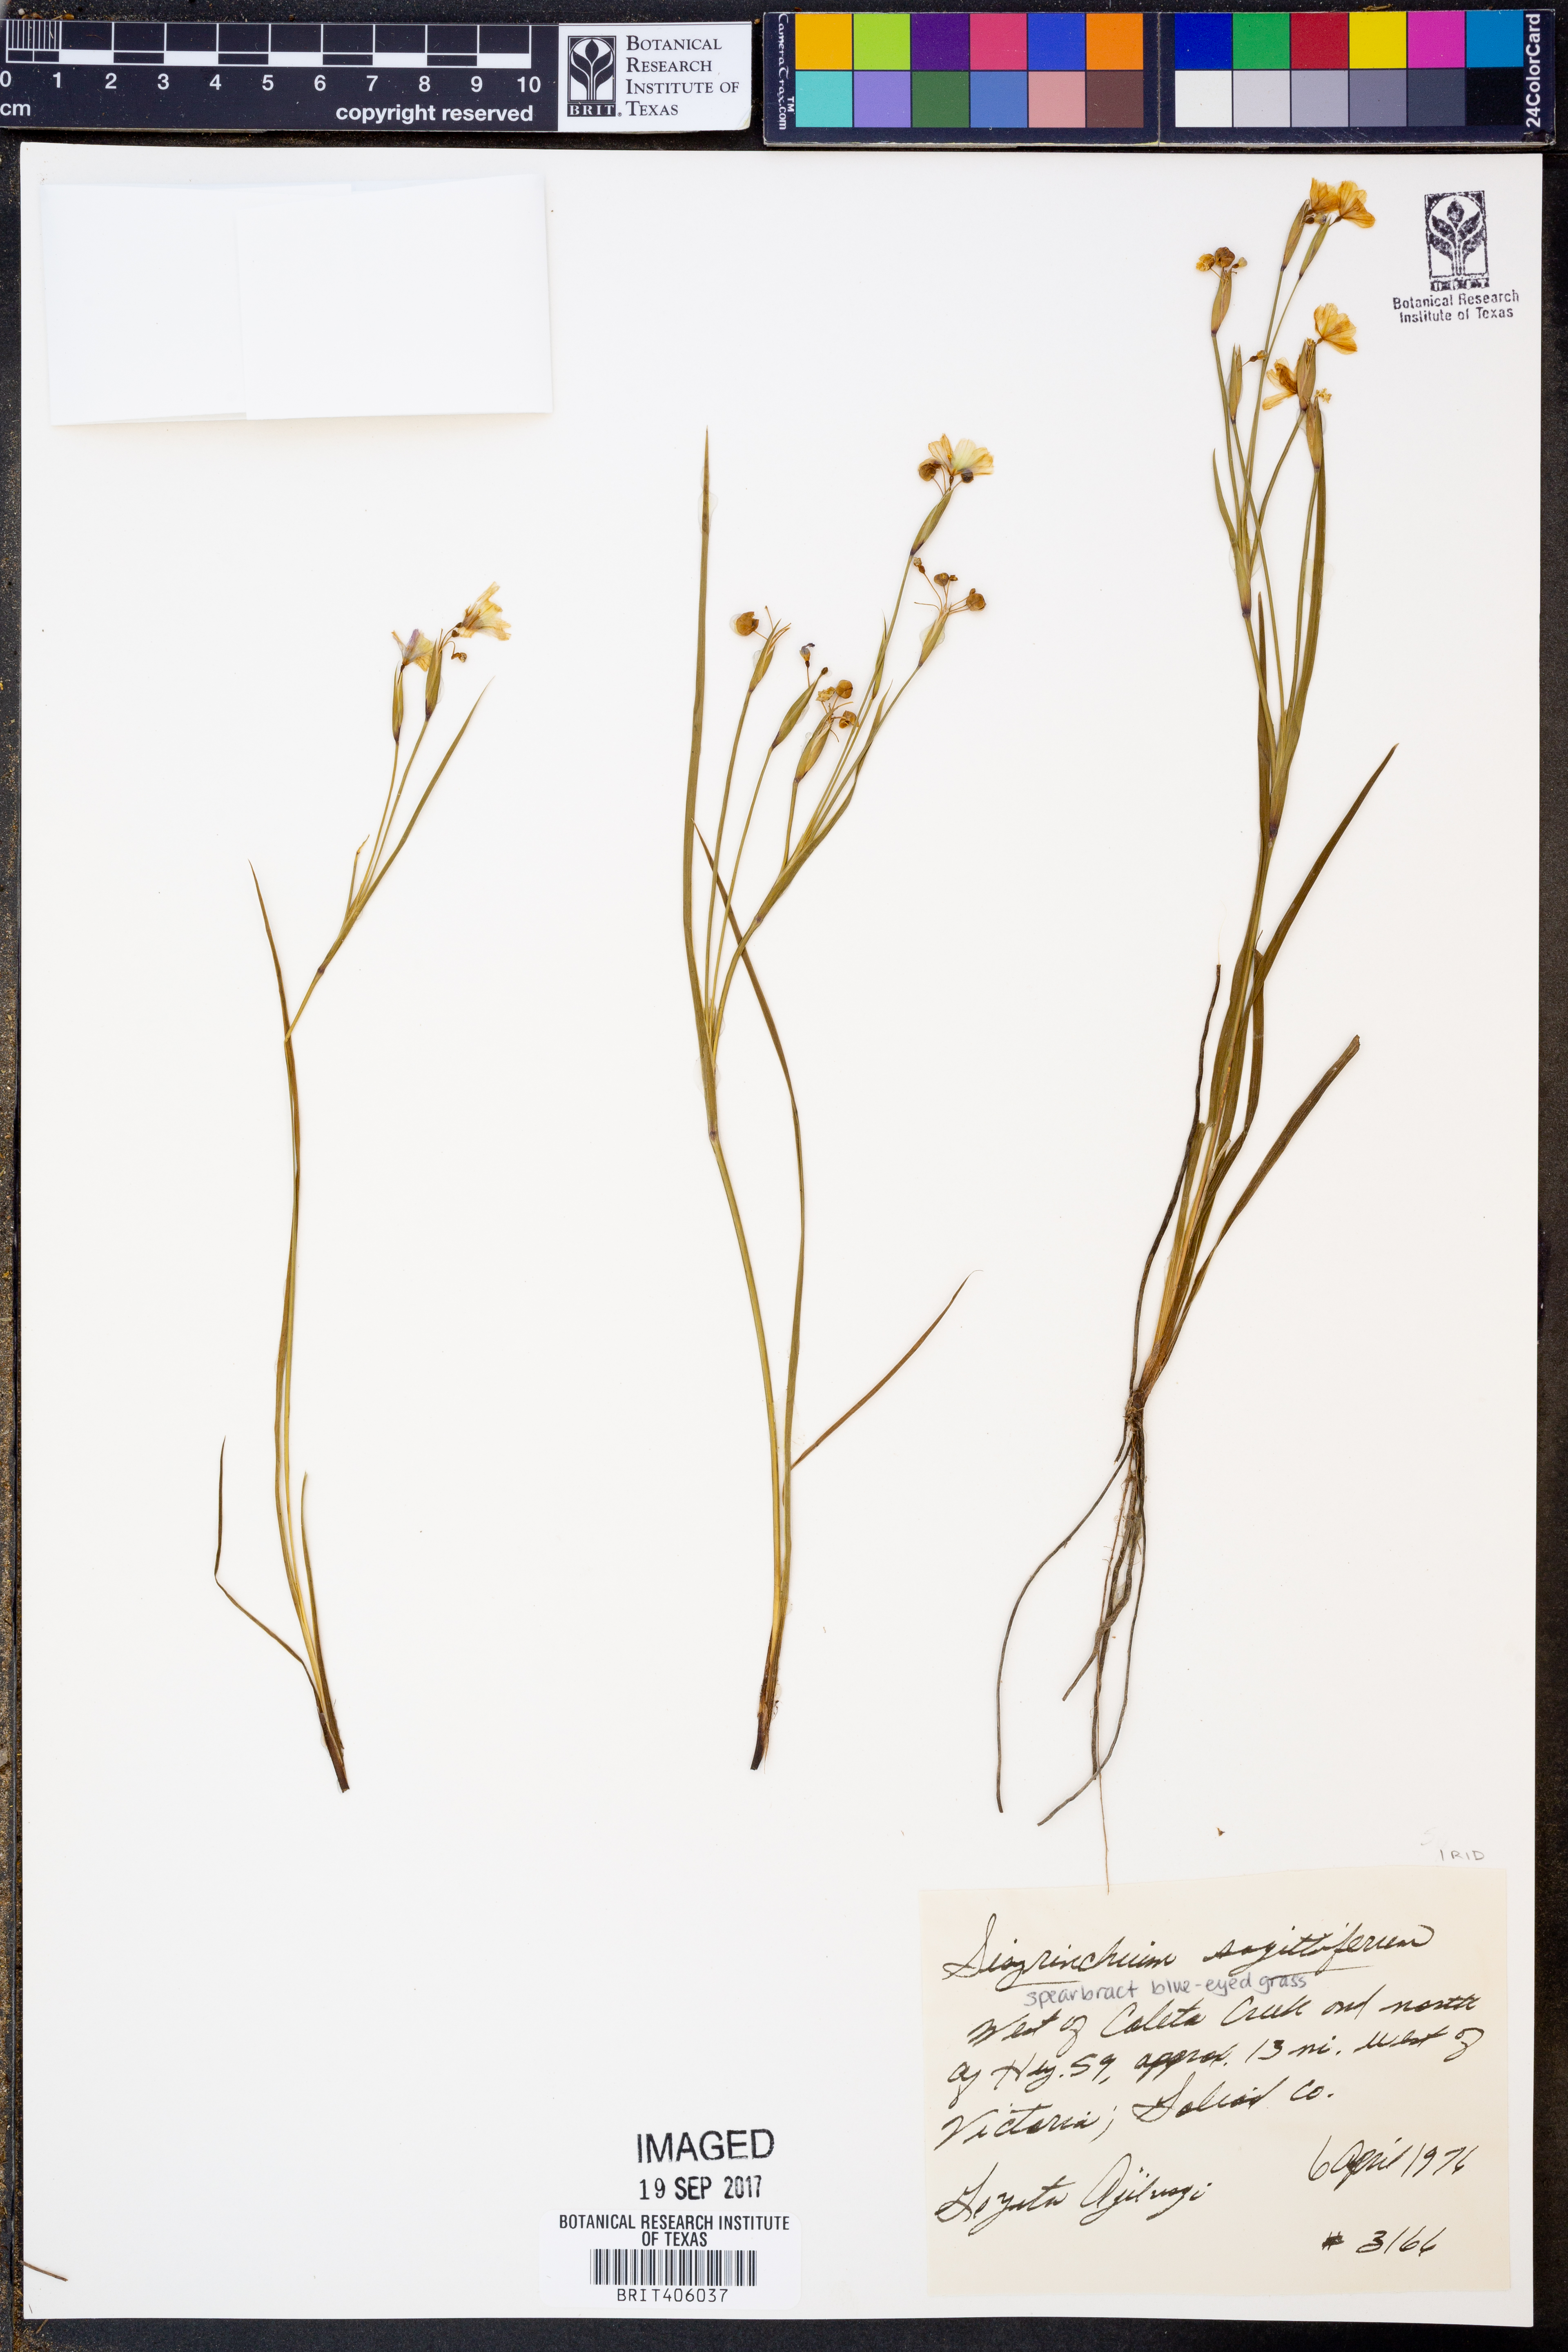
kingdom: Plantae
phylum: Tracheophyta
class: Liliopsida
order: Asparagales
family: Iridaceae
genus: Sisyrinchium
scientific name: Sisyrinchium sagittiferum
